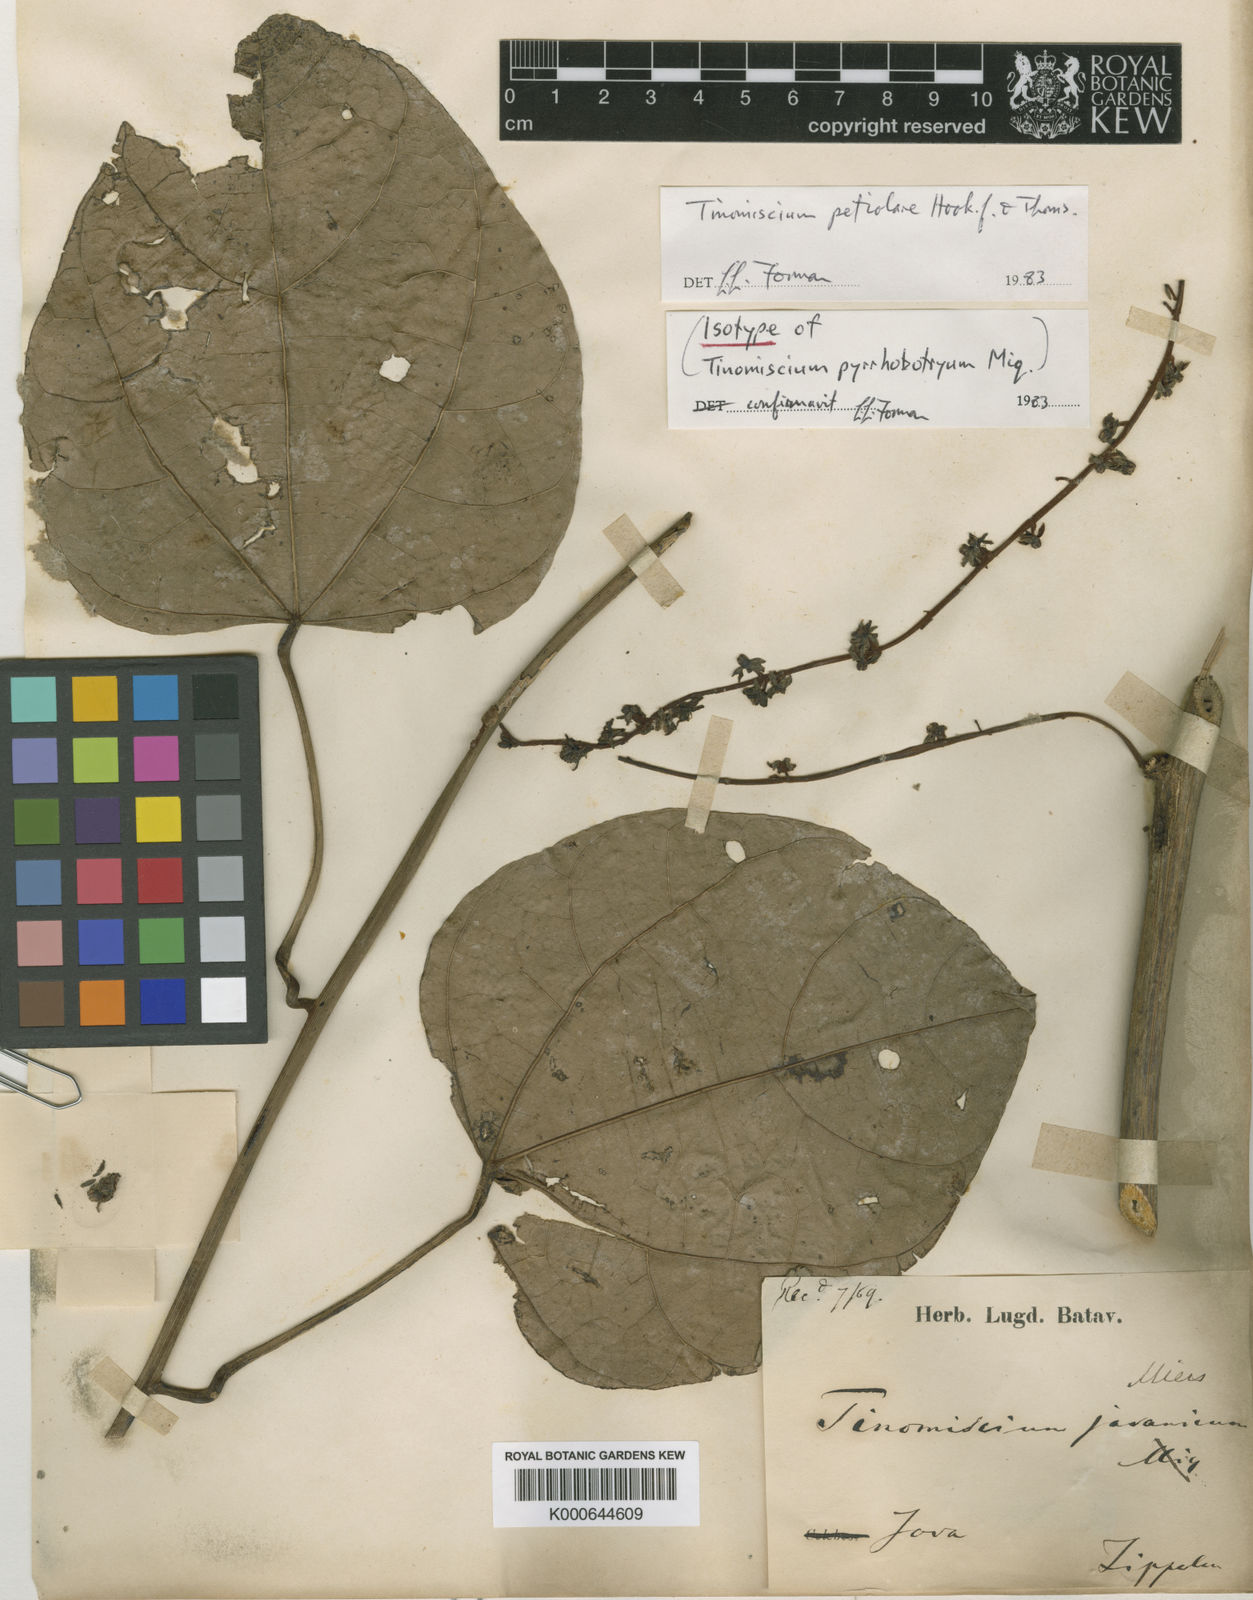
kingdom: Plantae
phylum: Tracheophyta
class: Magnoliopsida
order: Ranunculales
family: Menispermaceae
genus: Tinomiscium
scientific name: Tinomiscium petiolare
